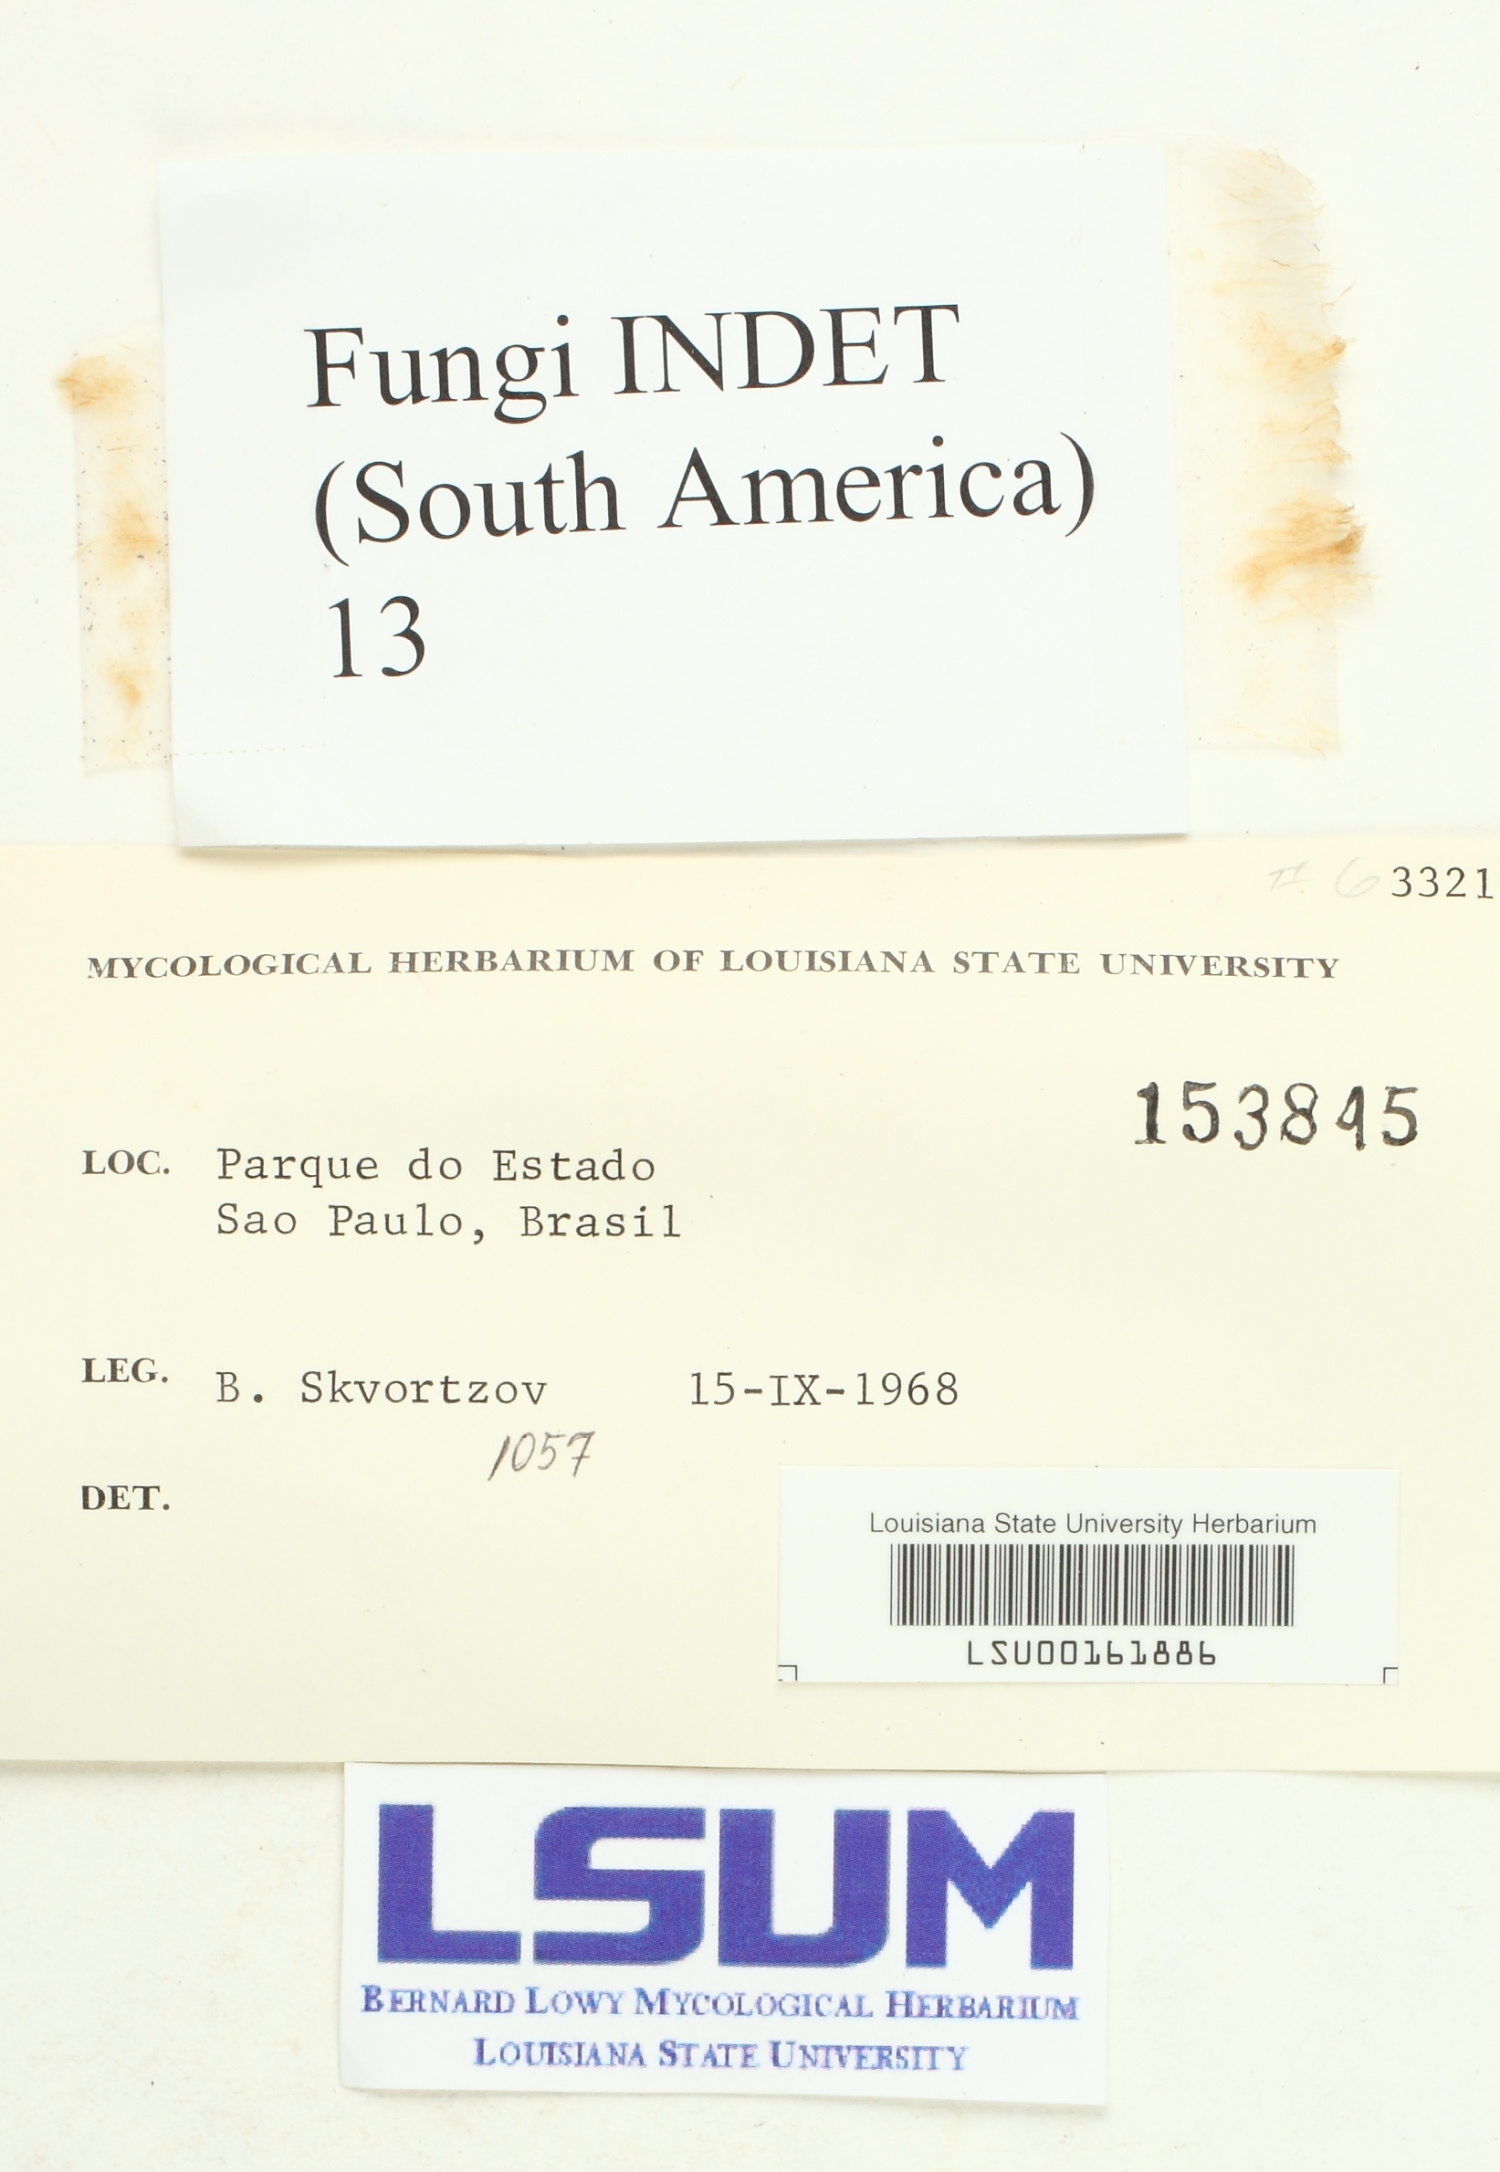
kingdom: Fungi
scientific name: Fungi
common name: Fungi
